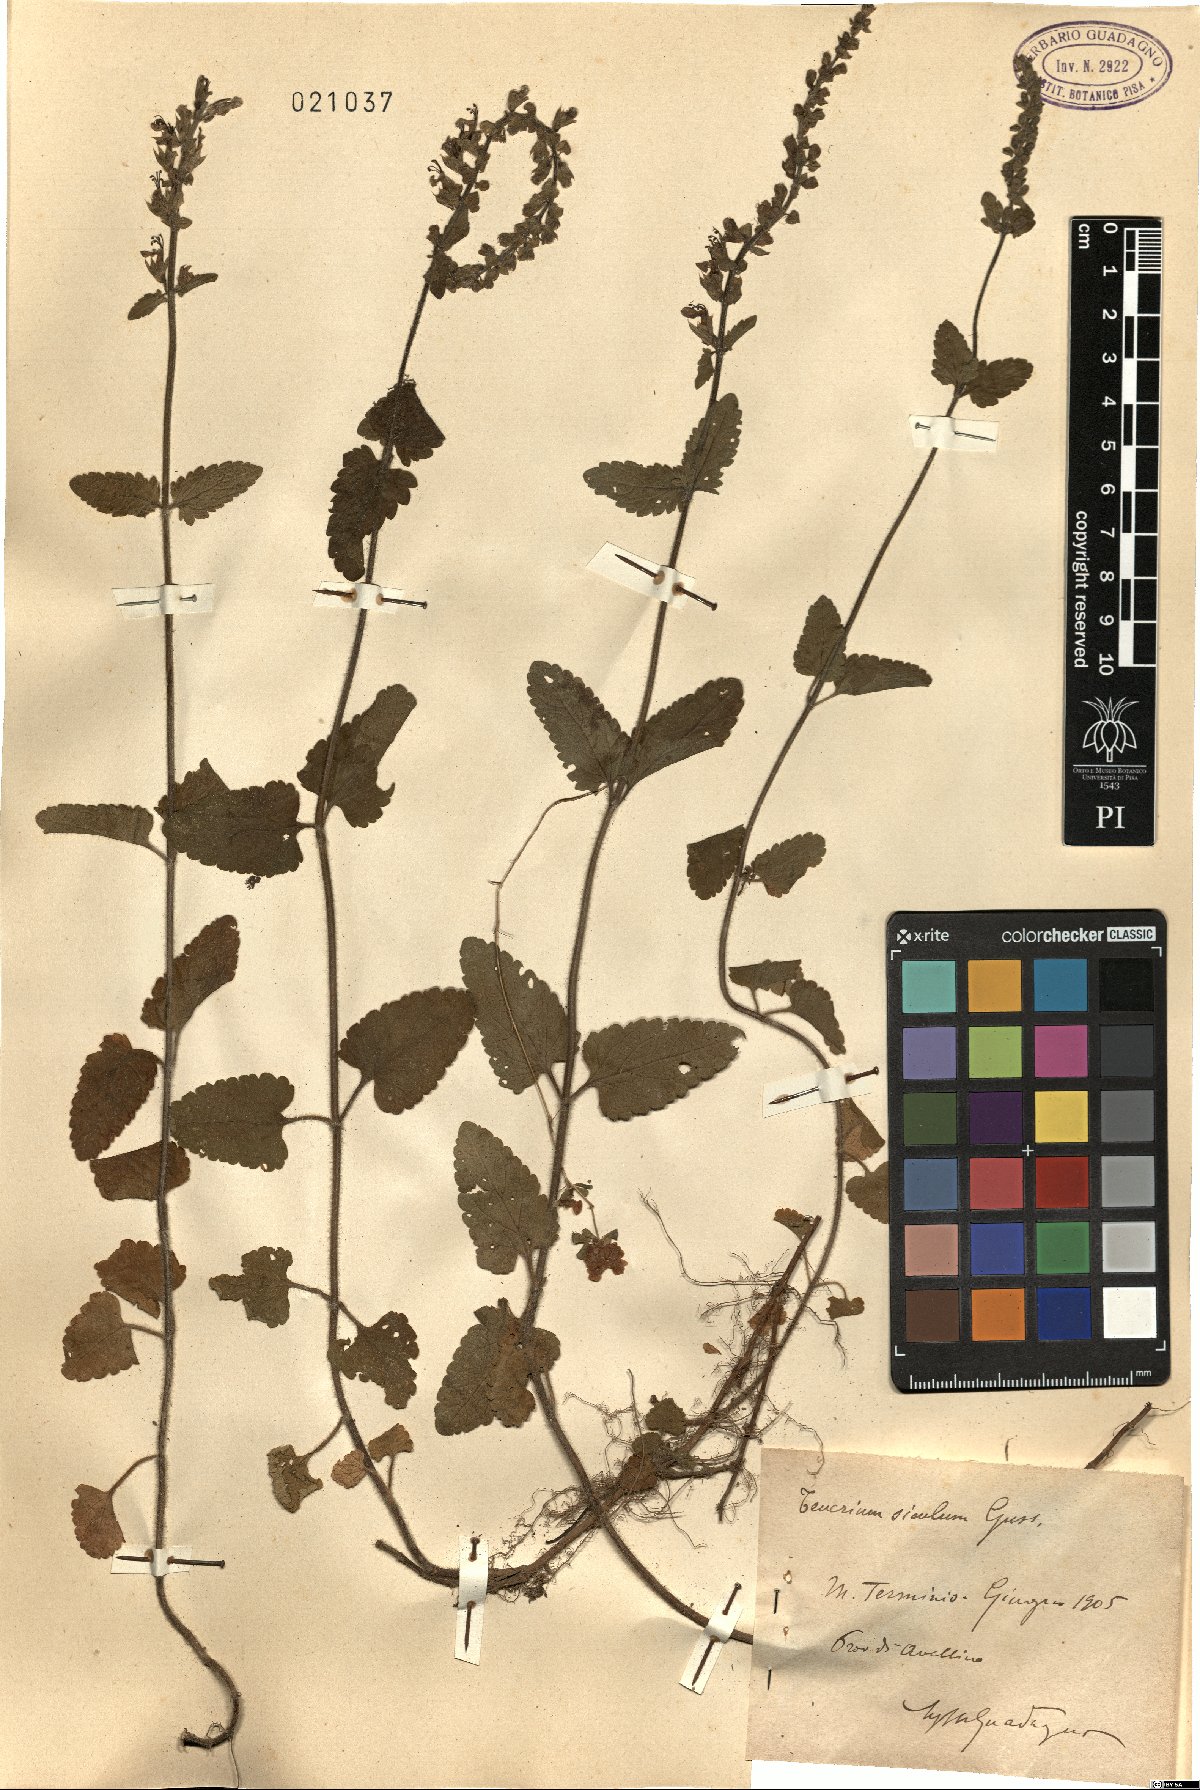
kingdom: Plantae
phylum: Tracheophyta
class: Magnoliopsida
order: Lamiales
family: Lamiaceae
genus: Teucrium
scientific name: Teucrium siculum
